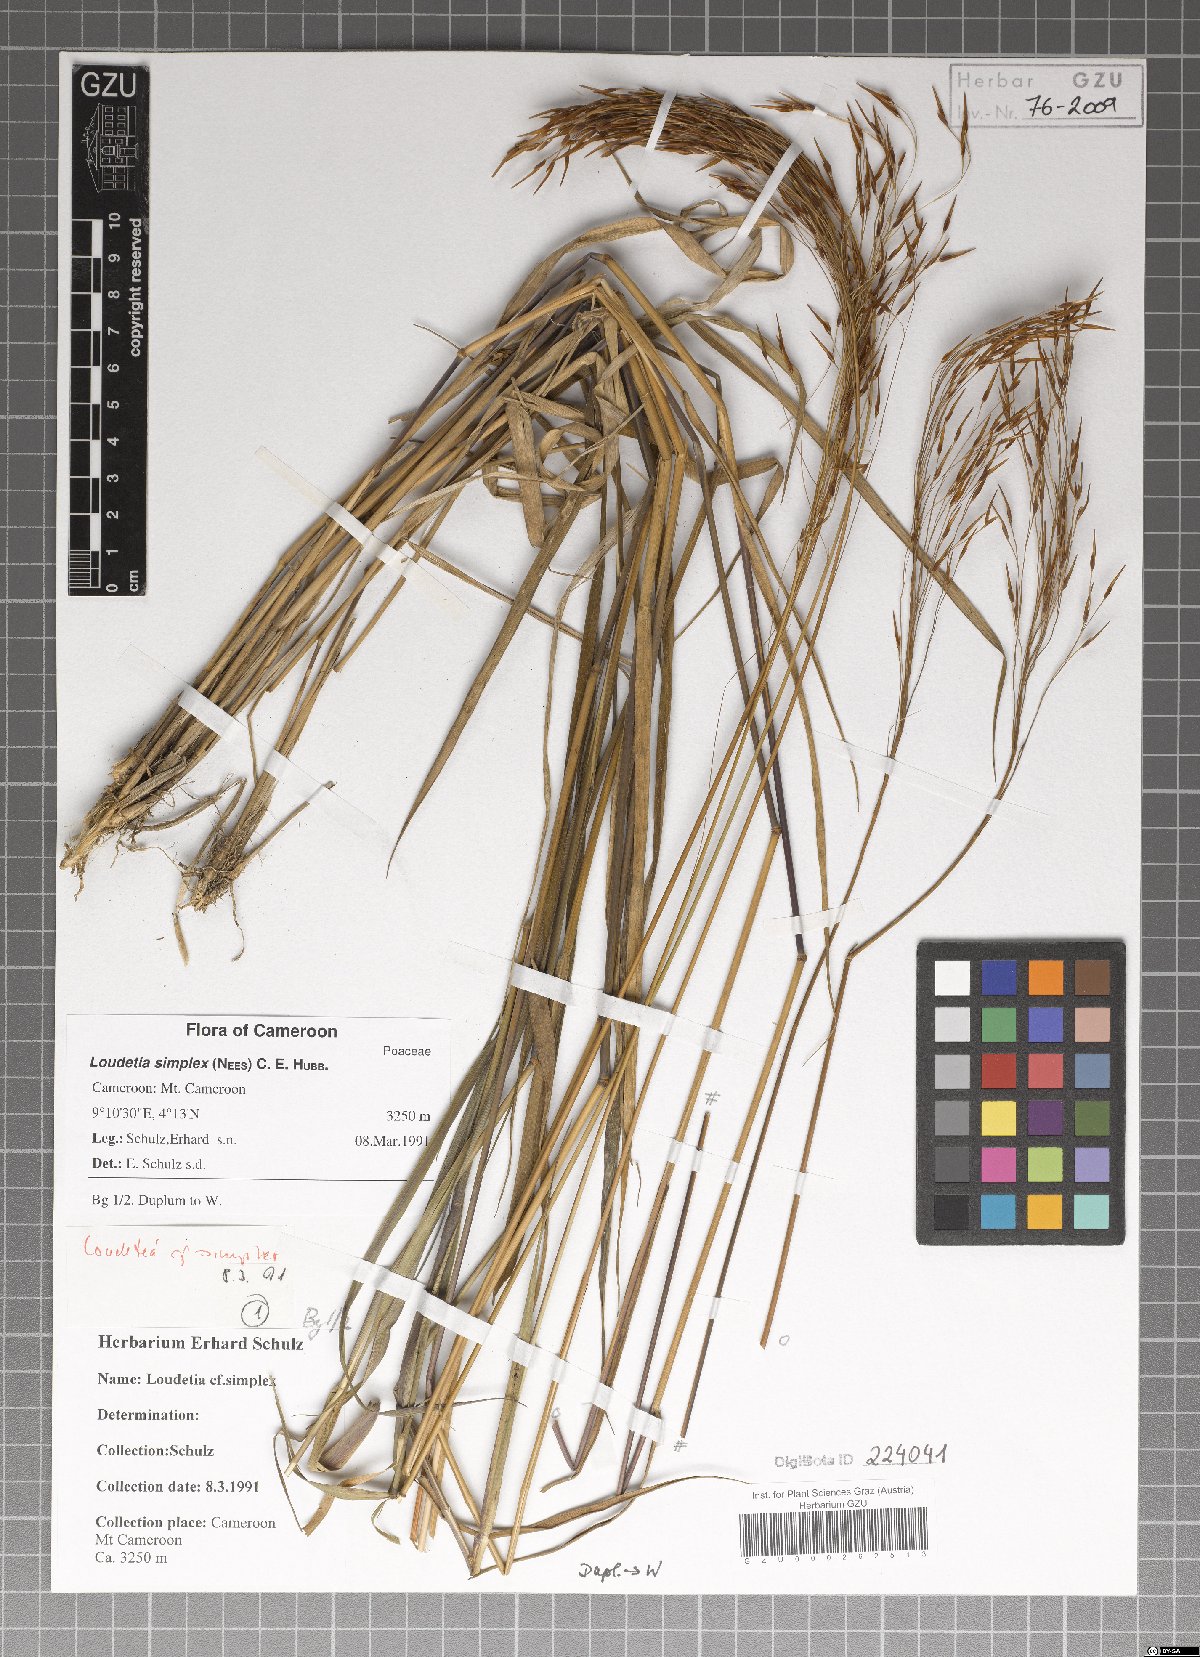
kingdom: Plantae
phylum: Tracheophyta
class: Liliopsida
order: Poales
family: Poaceae
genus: Loudetia
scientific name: Loudetia simplex
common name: Common russet grass
